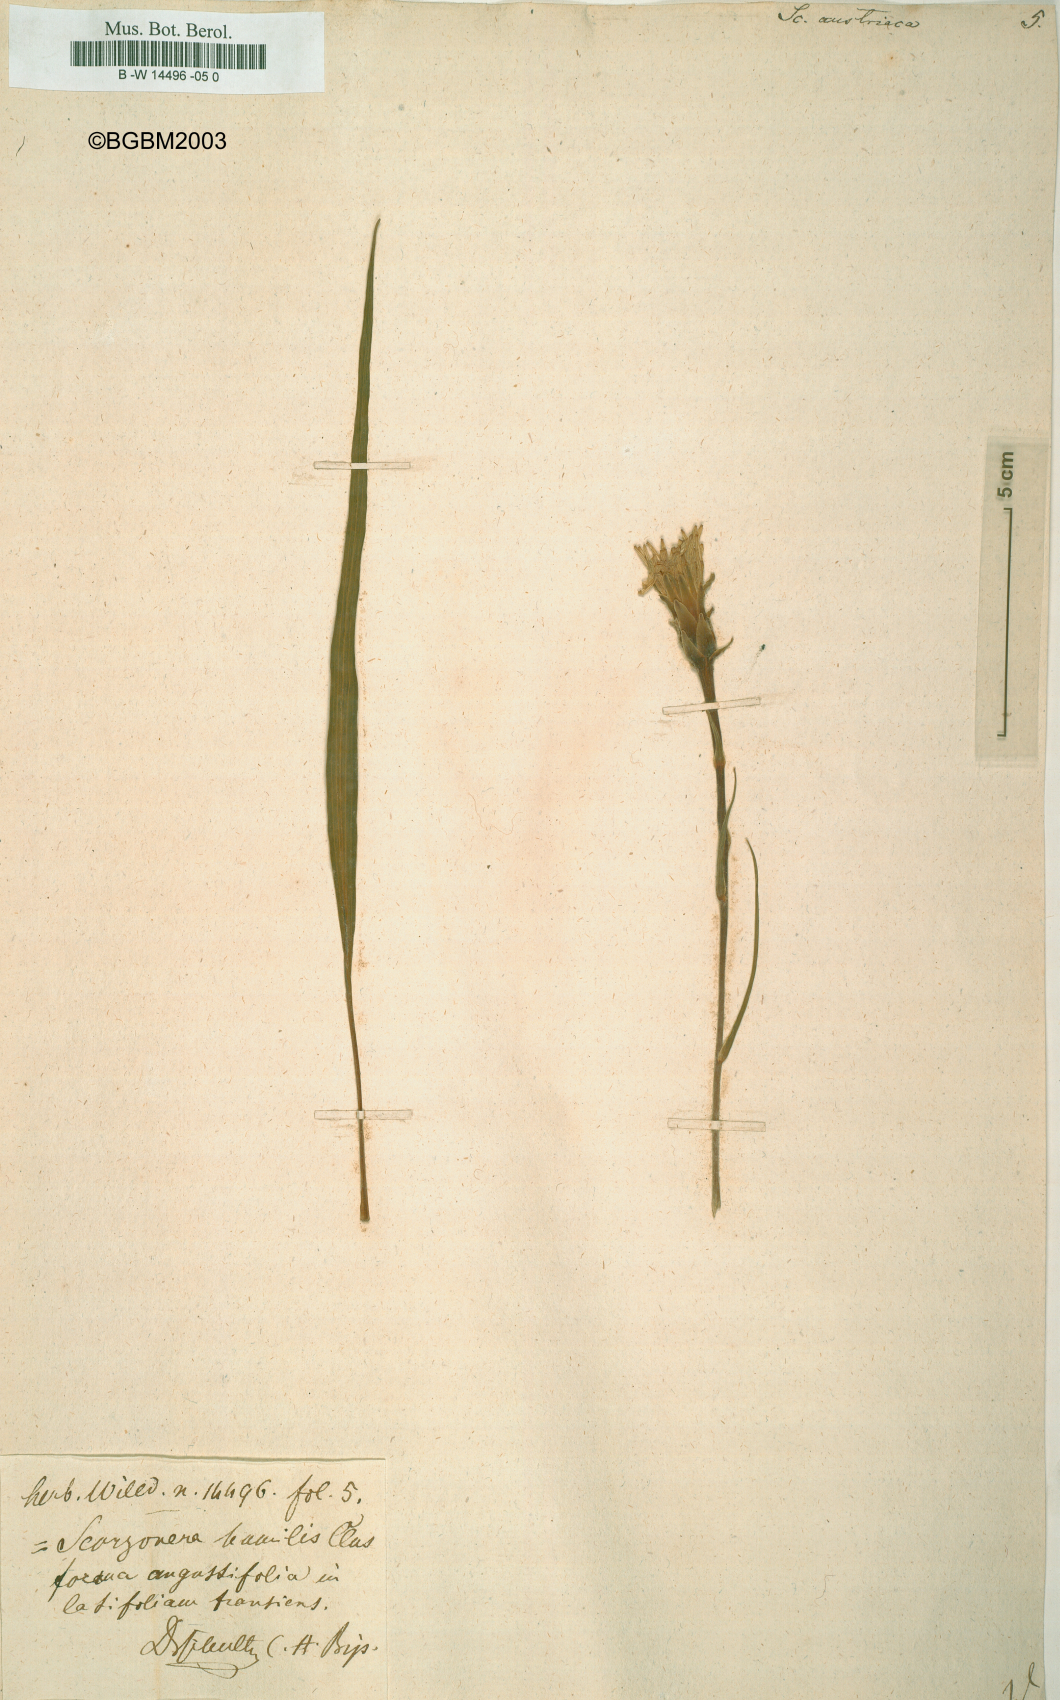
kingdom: Plantae
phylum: Tracheophyta
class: Magnoliopsida
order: Asterales
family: Asteraceae
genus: Scorzonera
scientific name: Scorzonera austriaca
